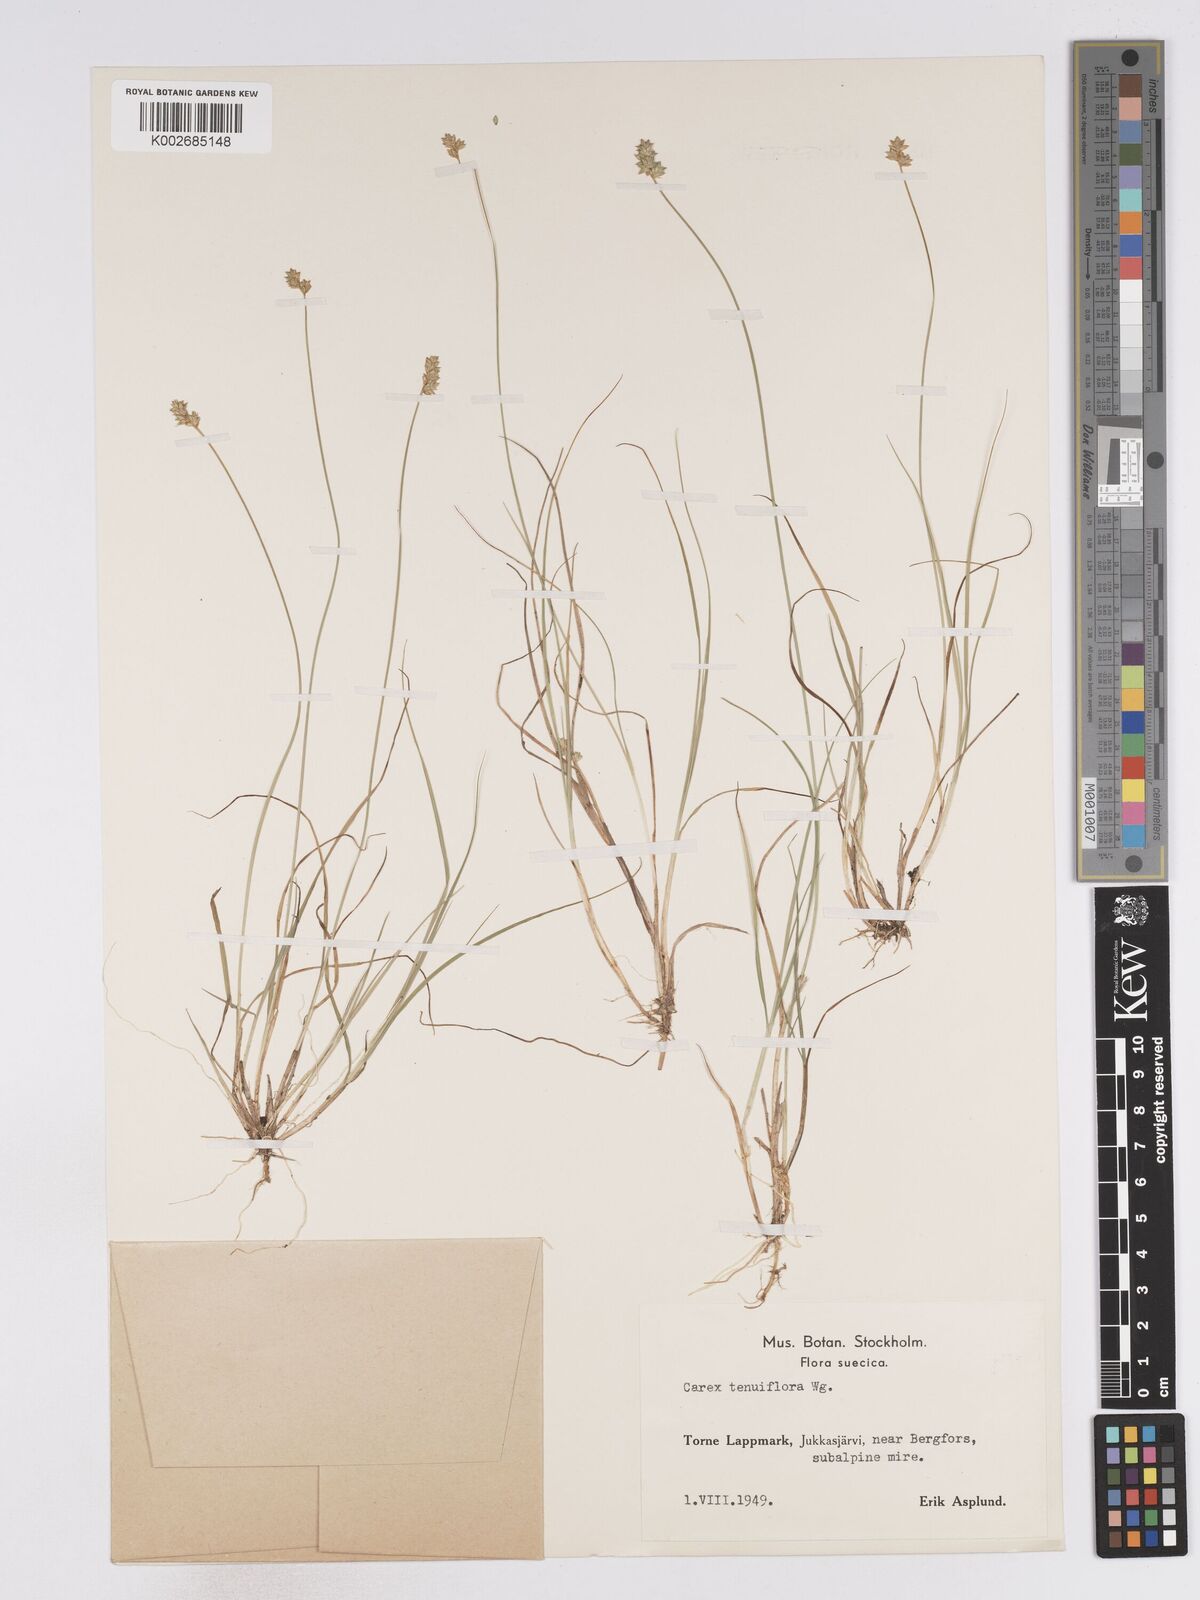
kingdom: Plantae
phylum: Tracheophyta
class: Liliopsida
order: Poales
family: Cyperaceae
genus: Carex
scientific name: Carex tenuiflora
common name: Sparse-flowered sedge
